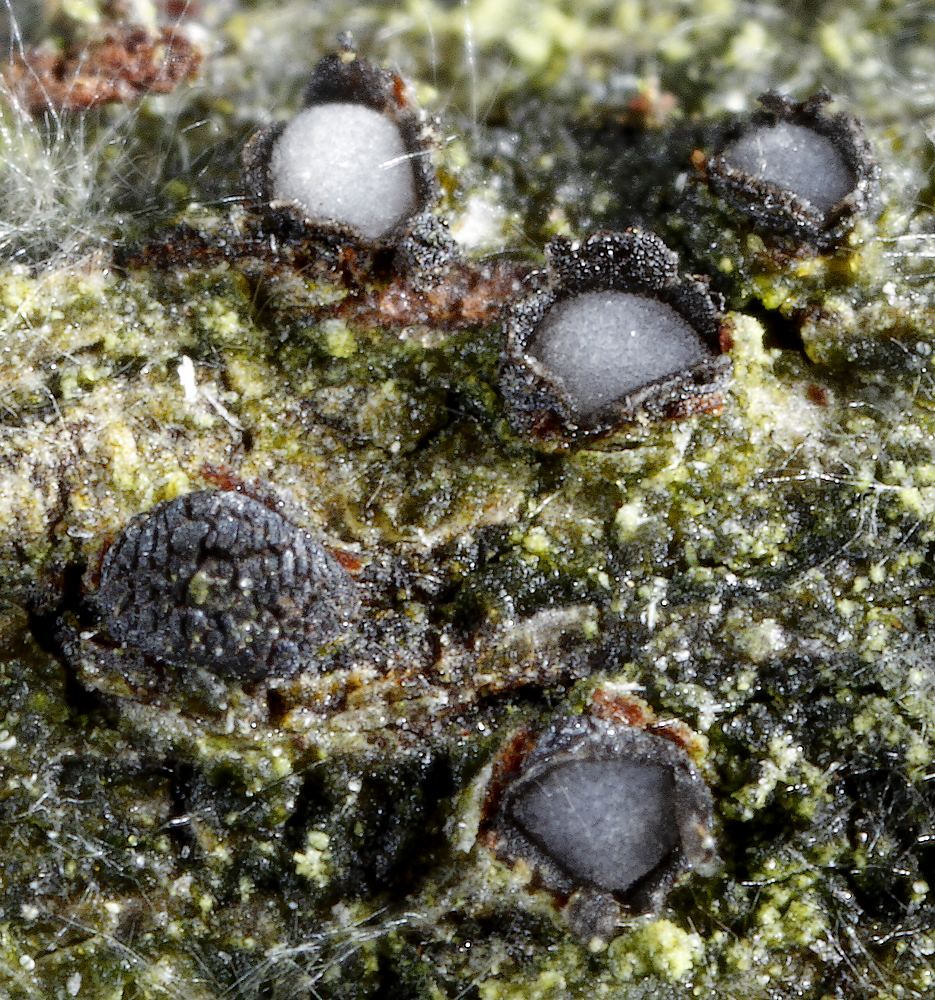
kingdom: Fungi
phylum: Ascomycota
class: Leotiomycetes
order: Phacidiales
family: Phacidiaceae
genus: Pseudophacidium
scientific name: Pseudophacidium ledi
